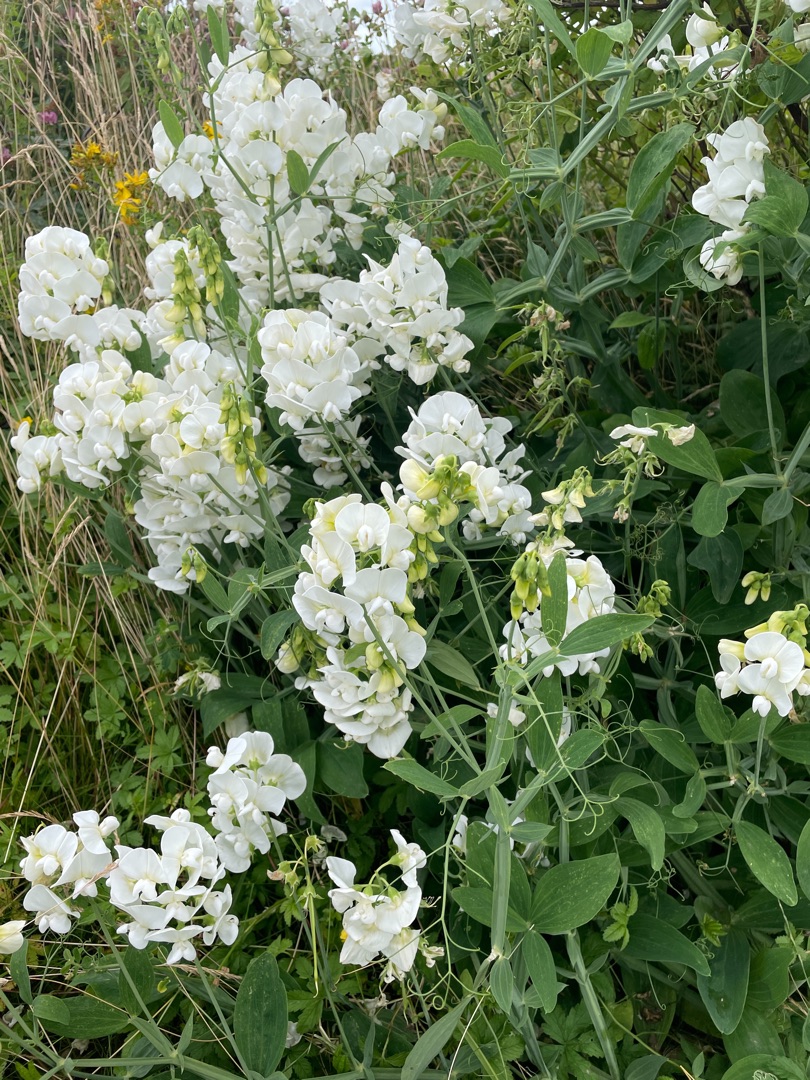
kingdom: Plantae
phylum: Tracheophyta
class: Magnoliopsida
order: Fabales
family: Fabaceae
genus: Lathyrus
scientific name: Lathyrus latifolius
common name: Flerårig ærteblomst
